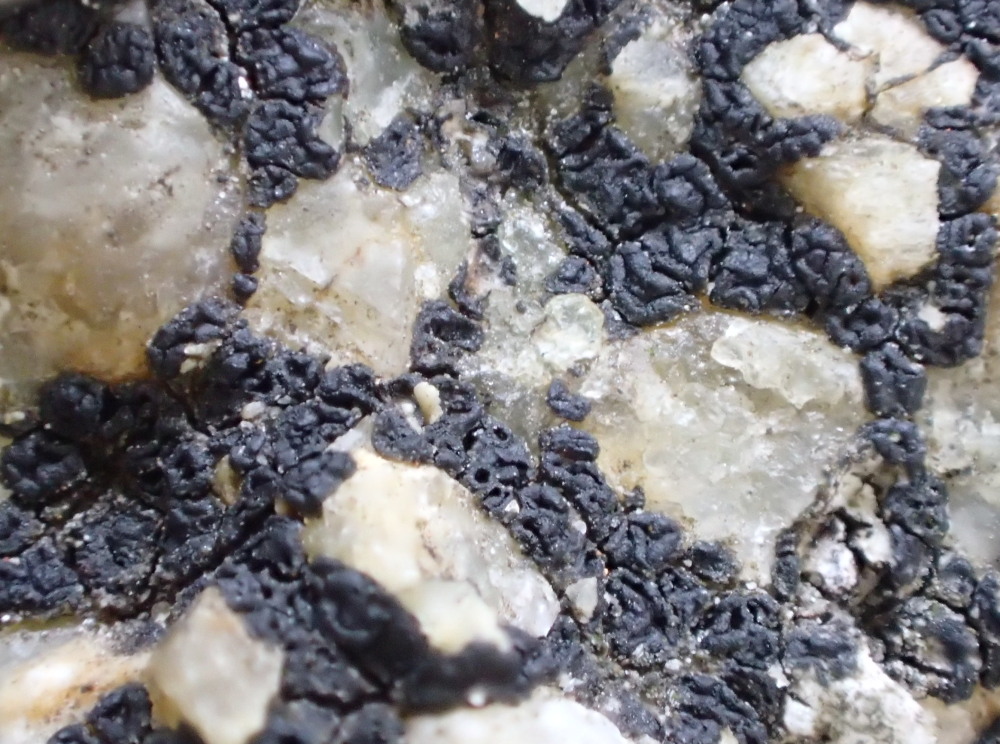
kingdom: Fungi
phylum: Ascomycota
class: Lecanoromycetes
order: Acarosporales
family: Acarosporaceae
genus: Acarospora
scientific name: Acarospora privigna
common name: sort foldekantlav
